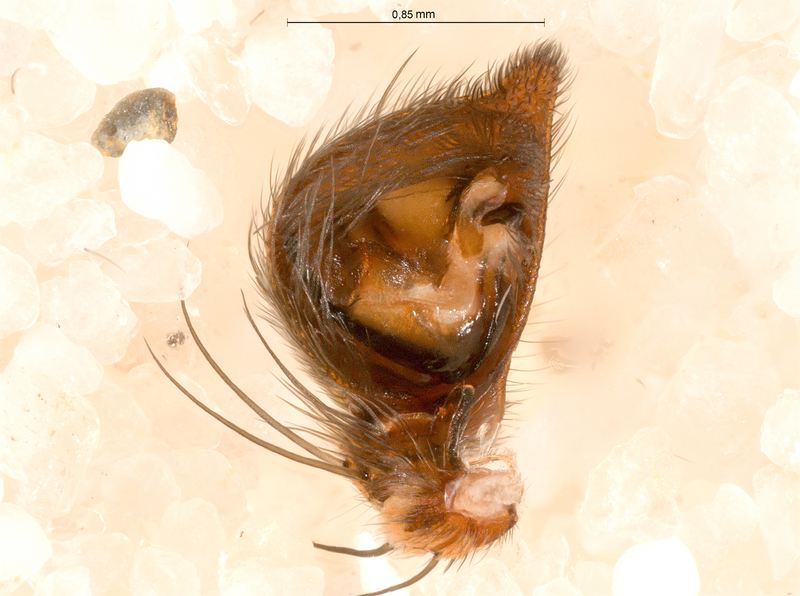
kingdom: Animalia
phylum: Arthropoda
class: Arachnida
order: Araneae
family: Oxyopidae
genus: Oxyopes
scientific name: Oxyopes ramosus
